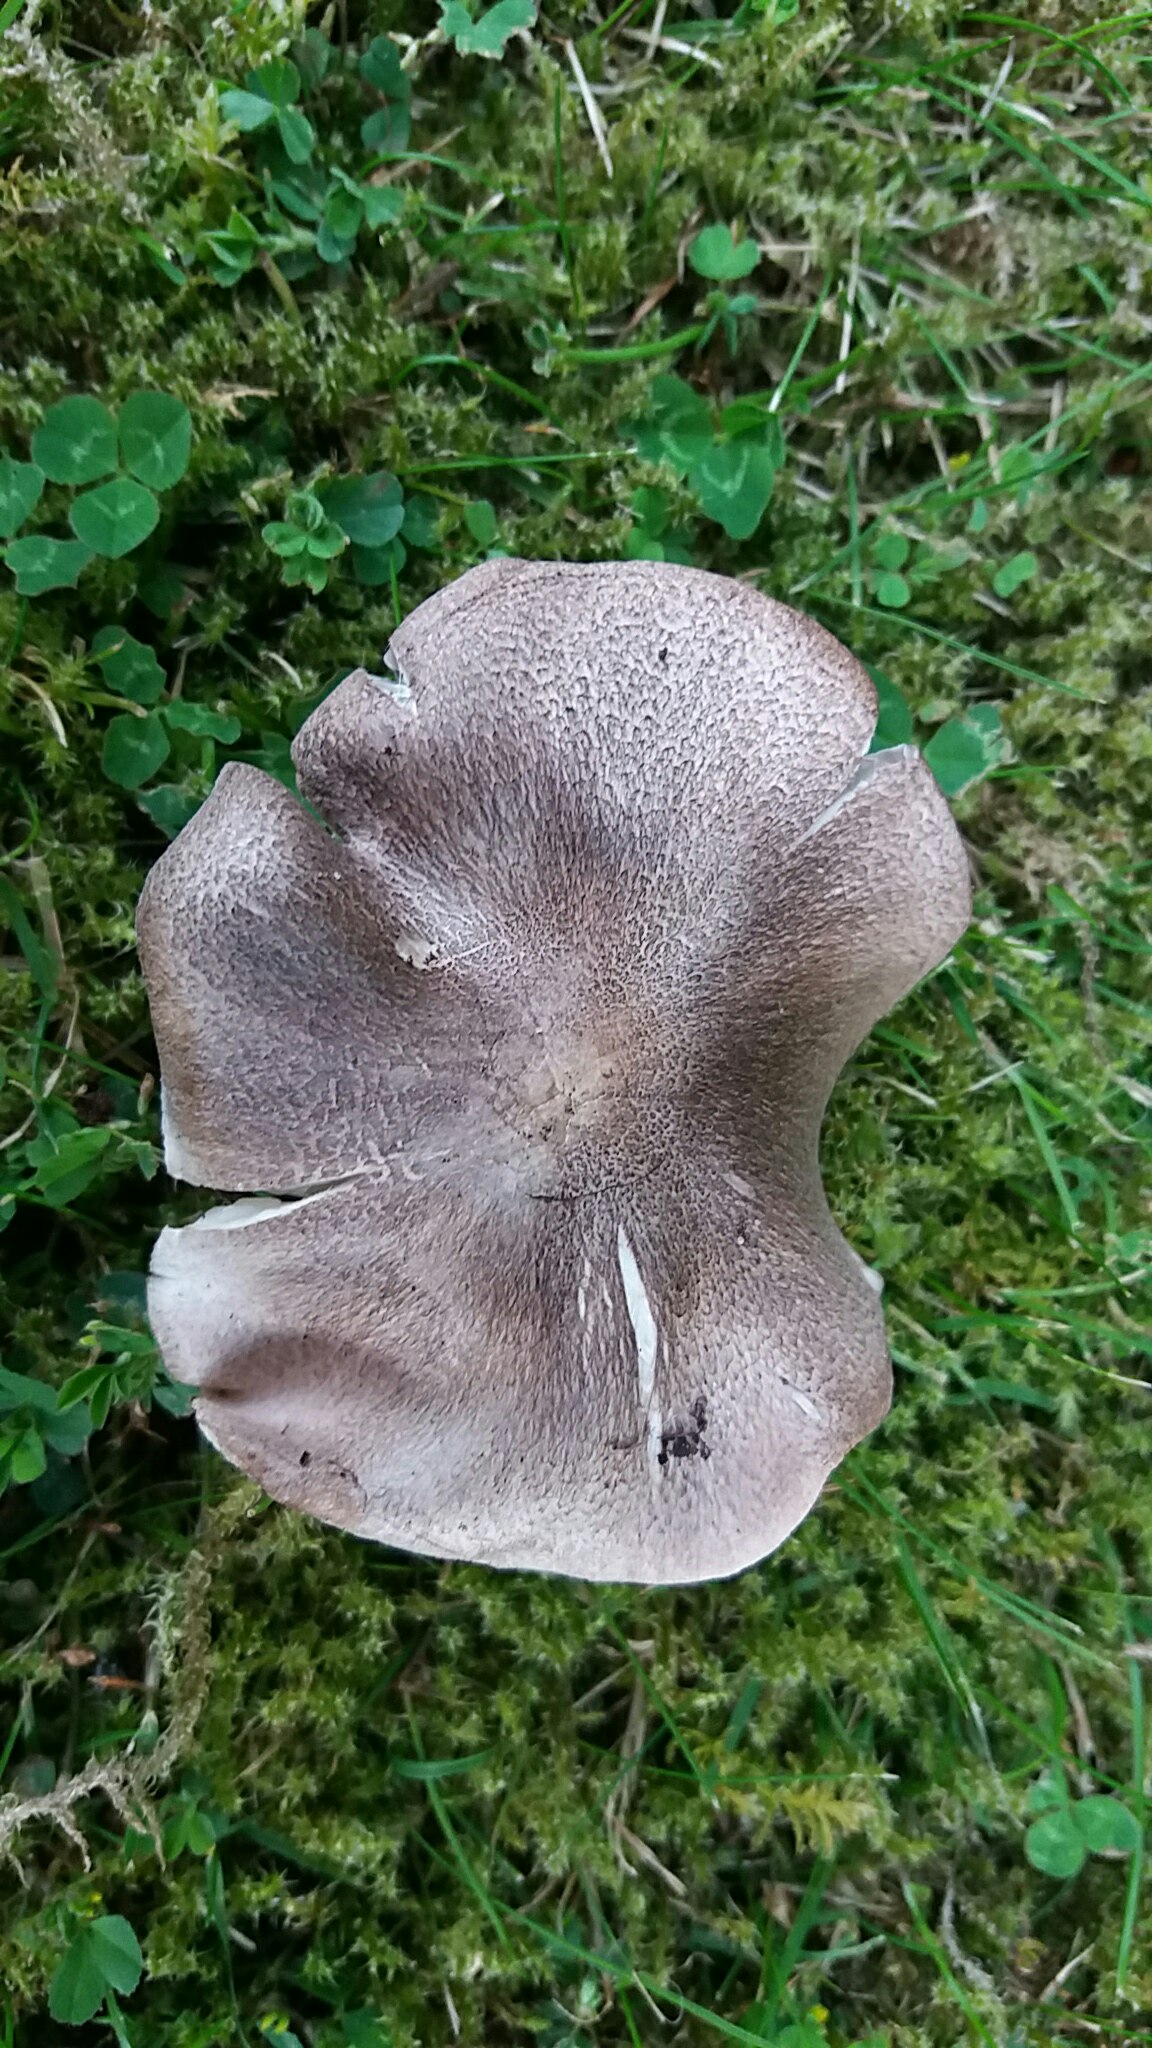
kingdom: Fungi
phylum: Basidiomycota
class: Agaricomycetes
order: Agaricales
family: Tricholomataceae
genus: Tricholoma
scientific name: Tricholoma terreum
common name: jordfarvet ridderhat
